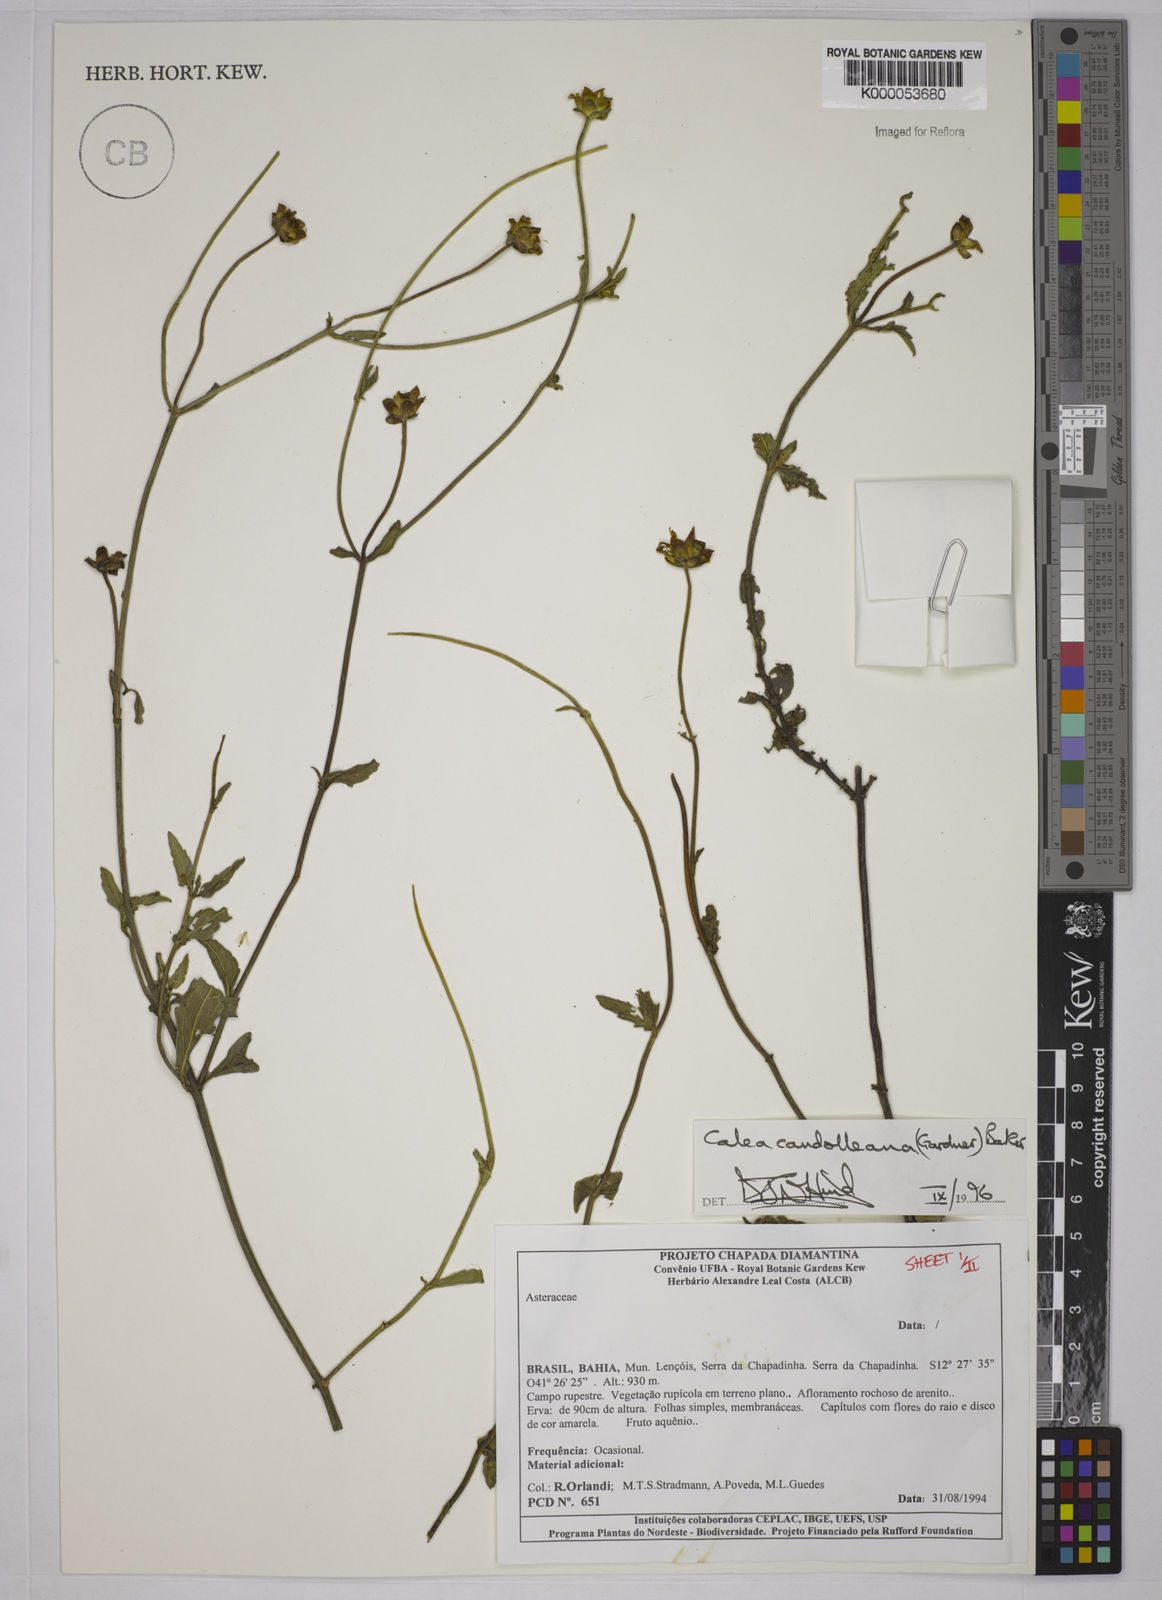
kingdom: Plantae
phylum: Tracheophyta
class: Magnoliopsida
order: Asterales
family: Asteraceae
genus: Calea
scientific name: Calea candolleana
